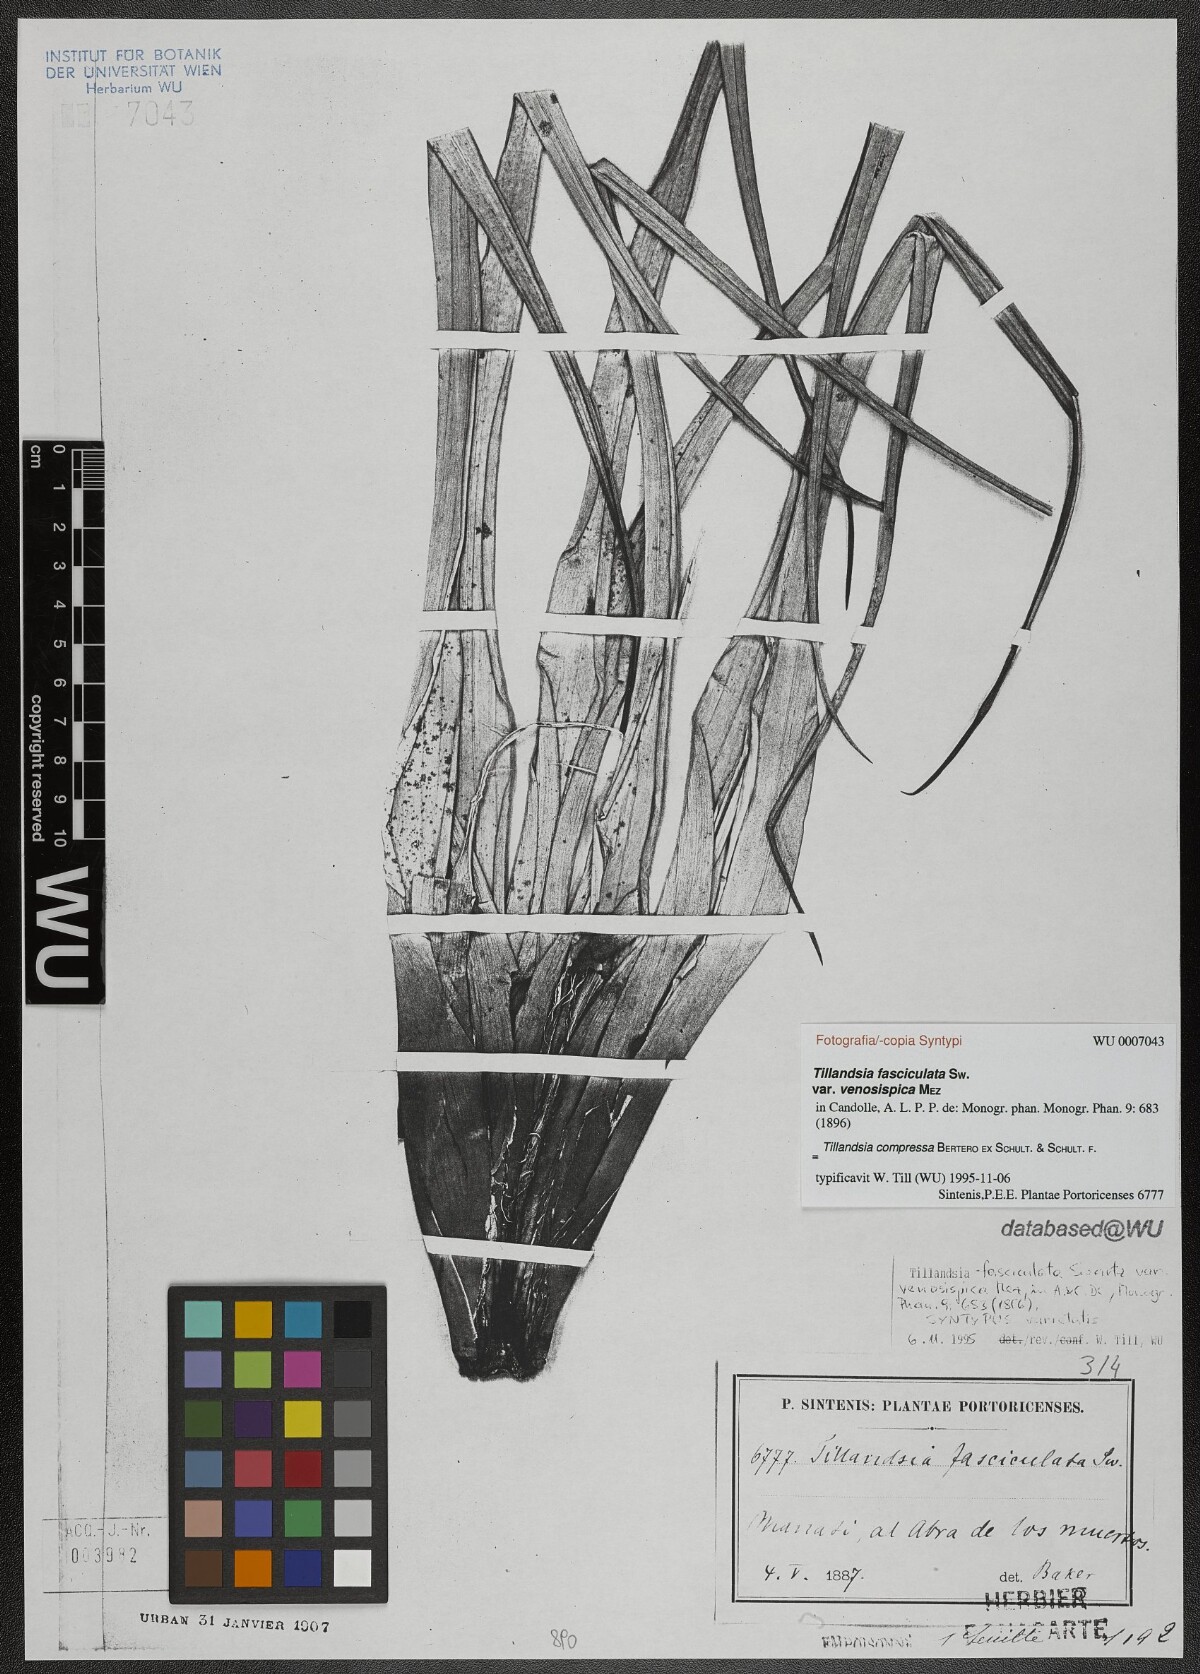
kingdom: Plantae
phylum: Tracheophyta
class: Liliopsida
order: Poales
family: Bromeliaceae
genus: Tillandsia
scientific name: Tillandsia compressa
